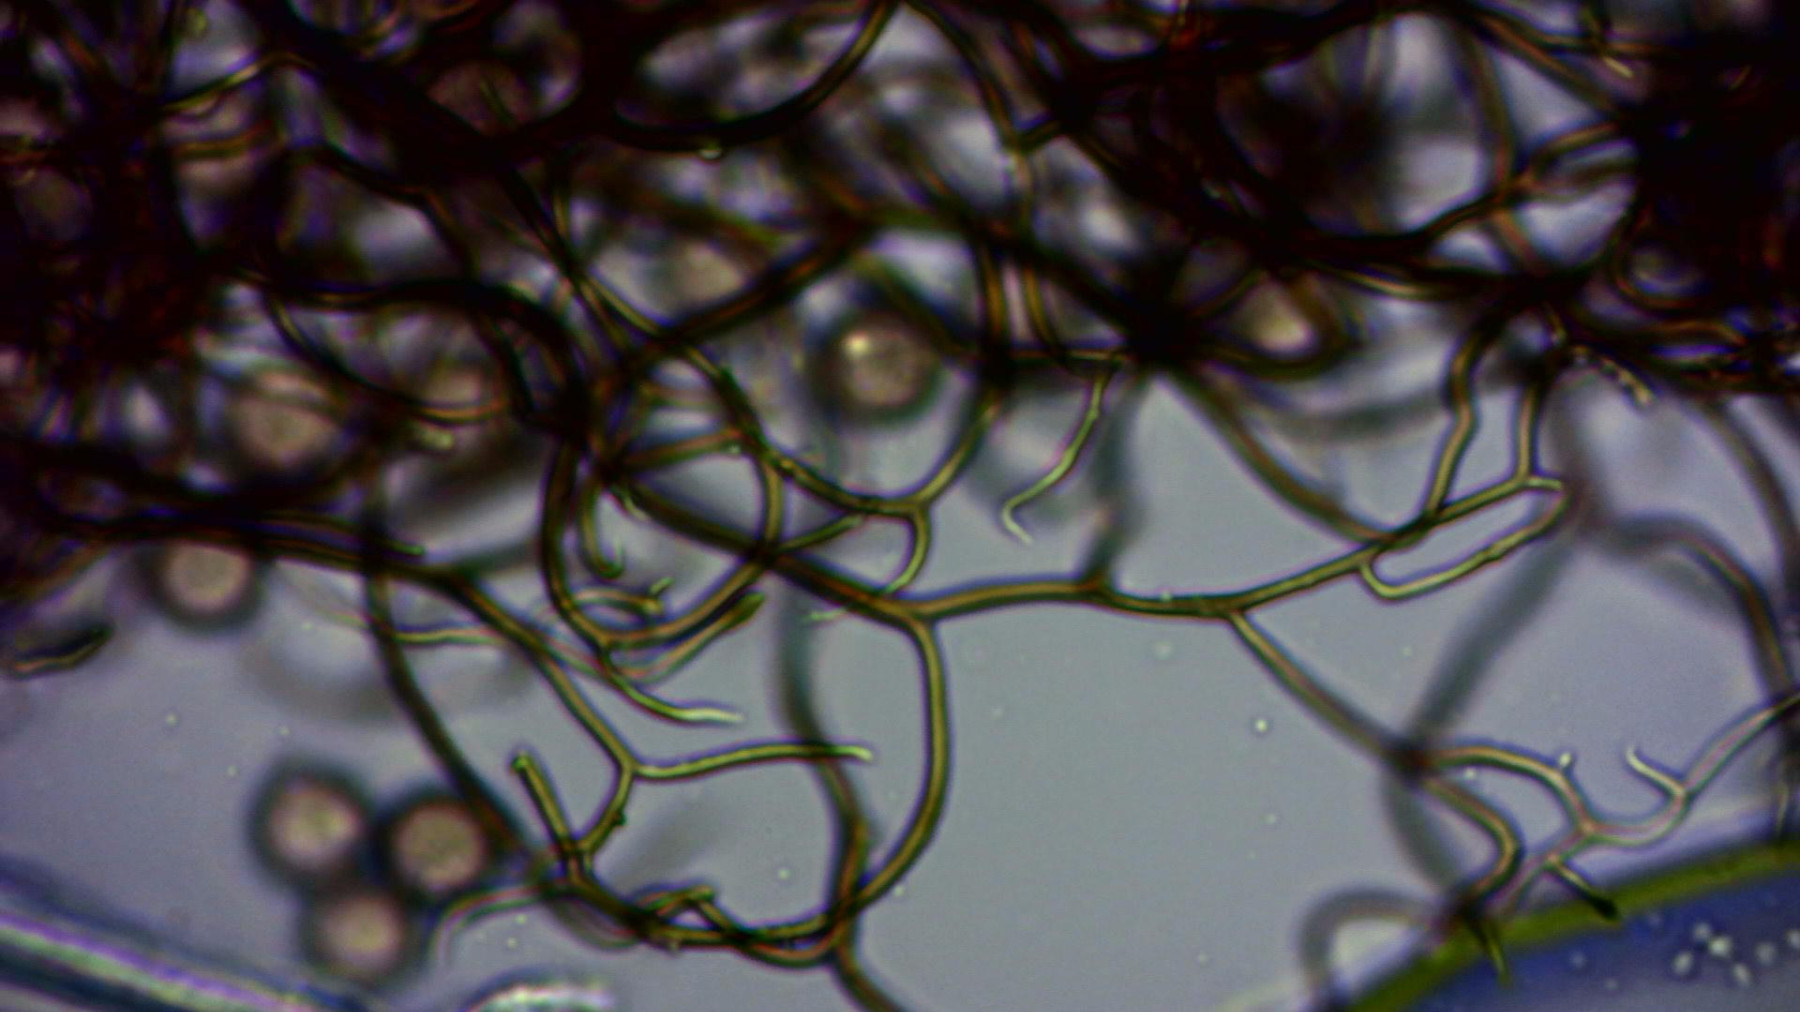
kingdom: Protozoa
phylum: Mycetozoa
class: Myxomycetes
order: Stemonitidales
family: Stemonitidaceae
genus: Comatricha
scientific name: Comatricha elegans
